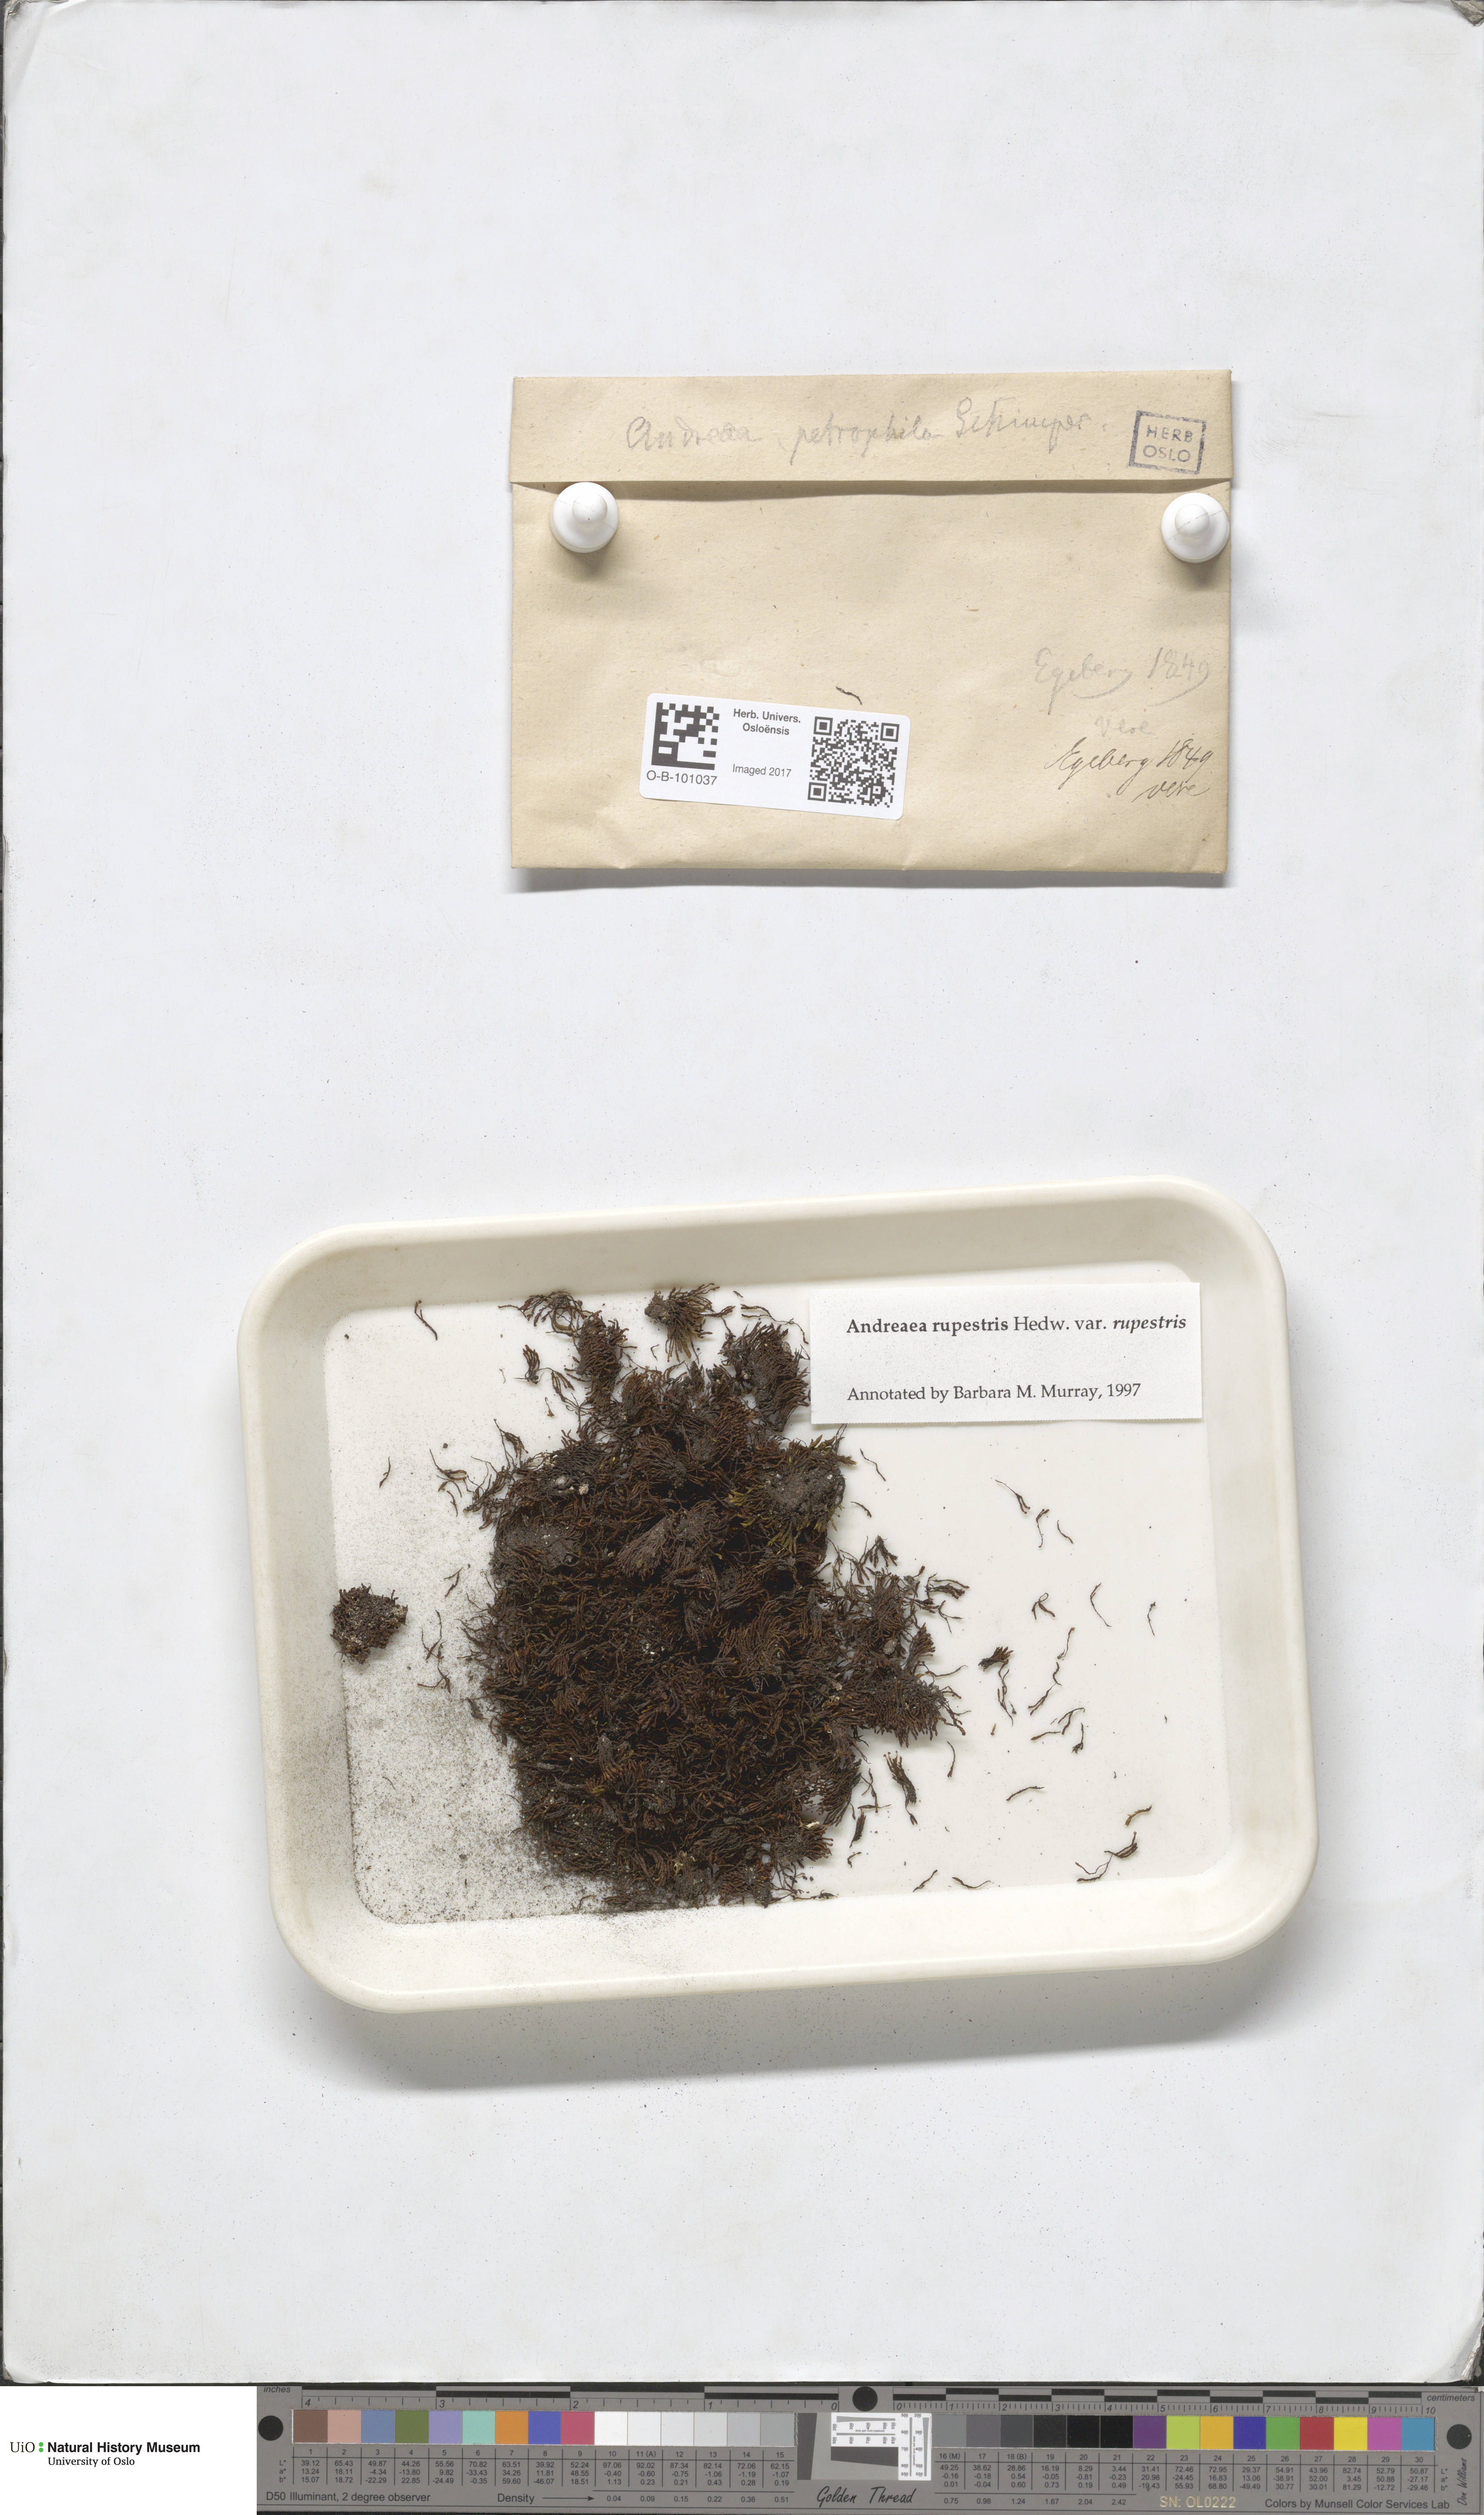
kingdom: Plantae
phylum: Bryophyta
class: Andreaeopsida
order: Andreaeales
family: Andreaeaceae
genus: Andreaea
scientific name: Andreaea rupestris
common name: Black rock moss
